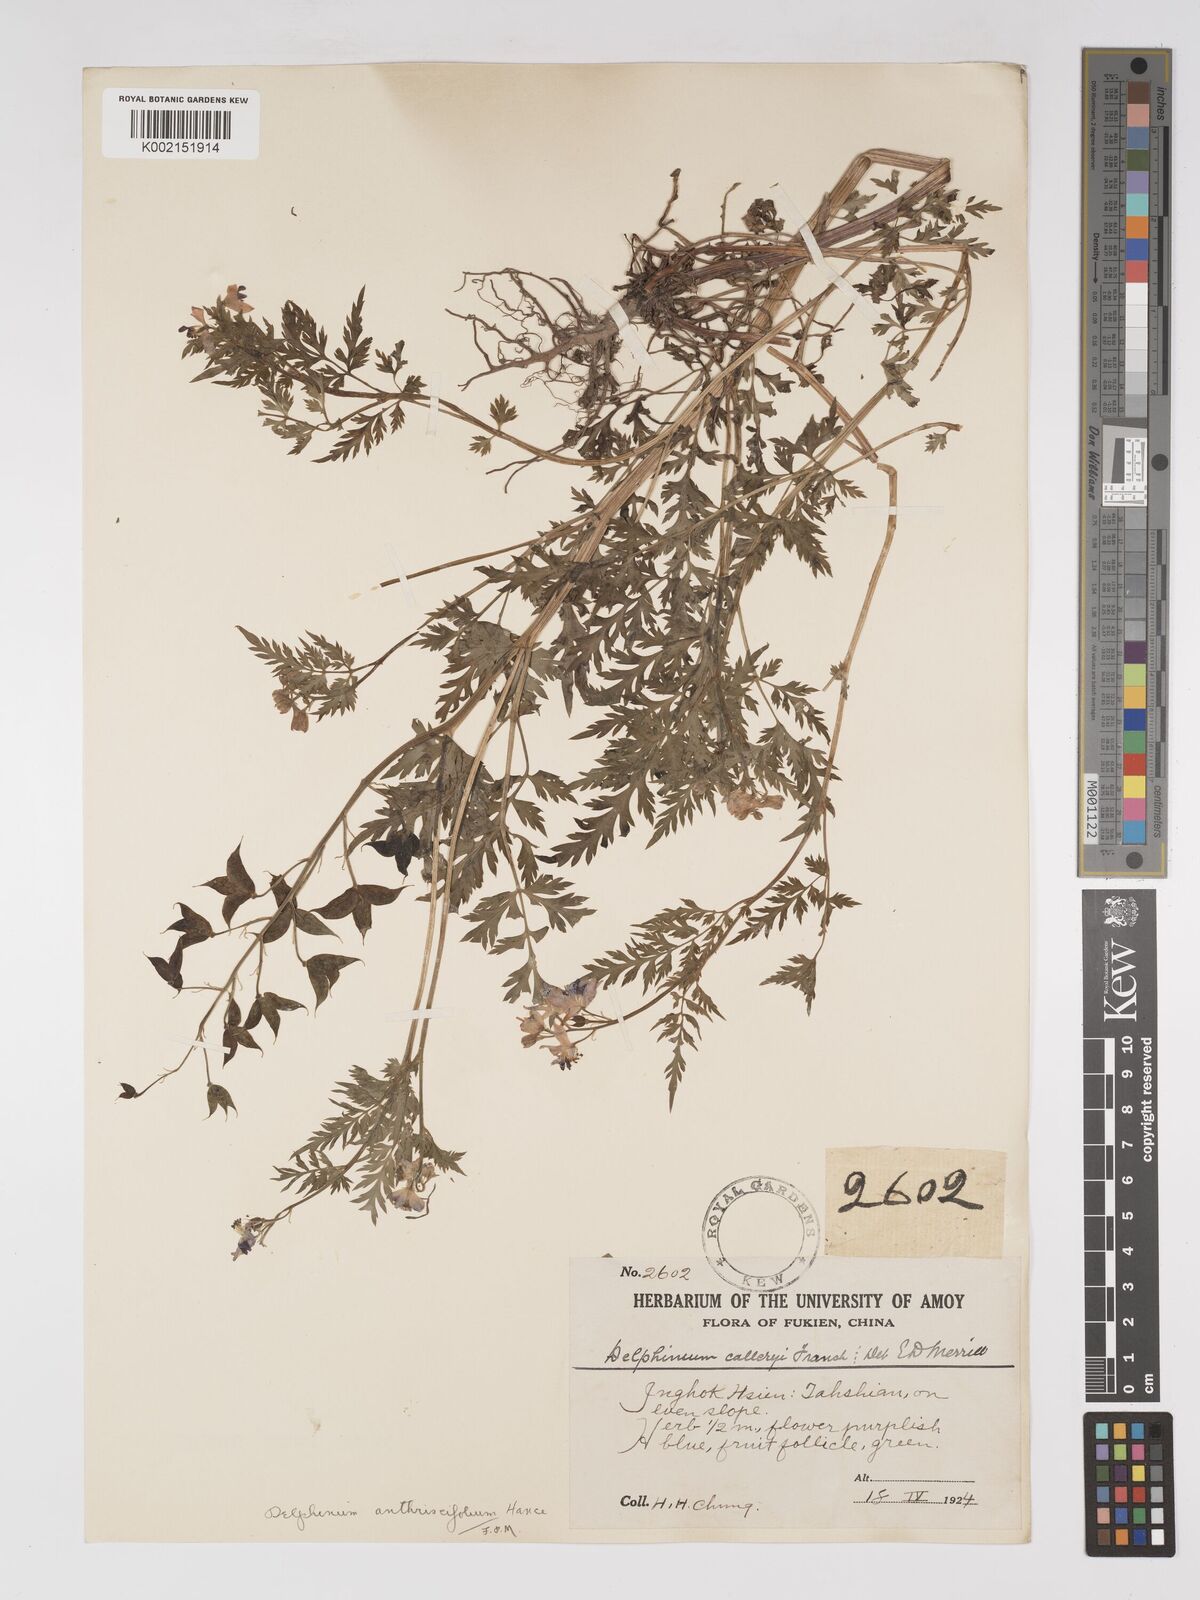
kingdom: Plantae
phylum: Tracheophyta
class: Magnoliopsida
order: Ranunculales
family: Ranunculaceae
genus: Delphinium
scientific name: Delphinium anthriscifolium
